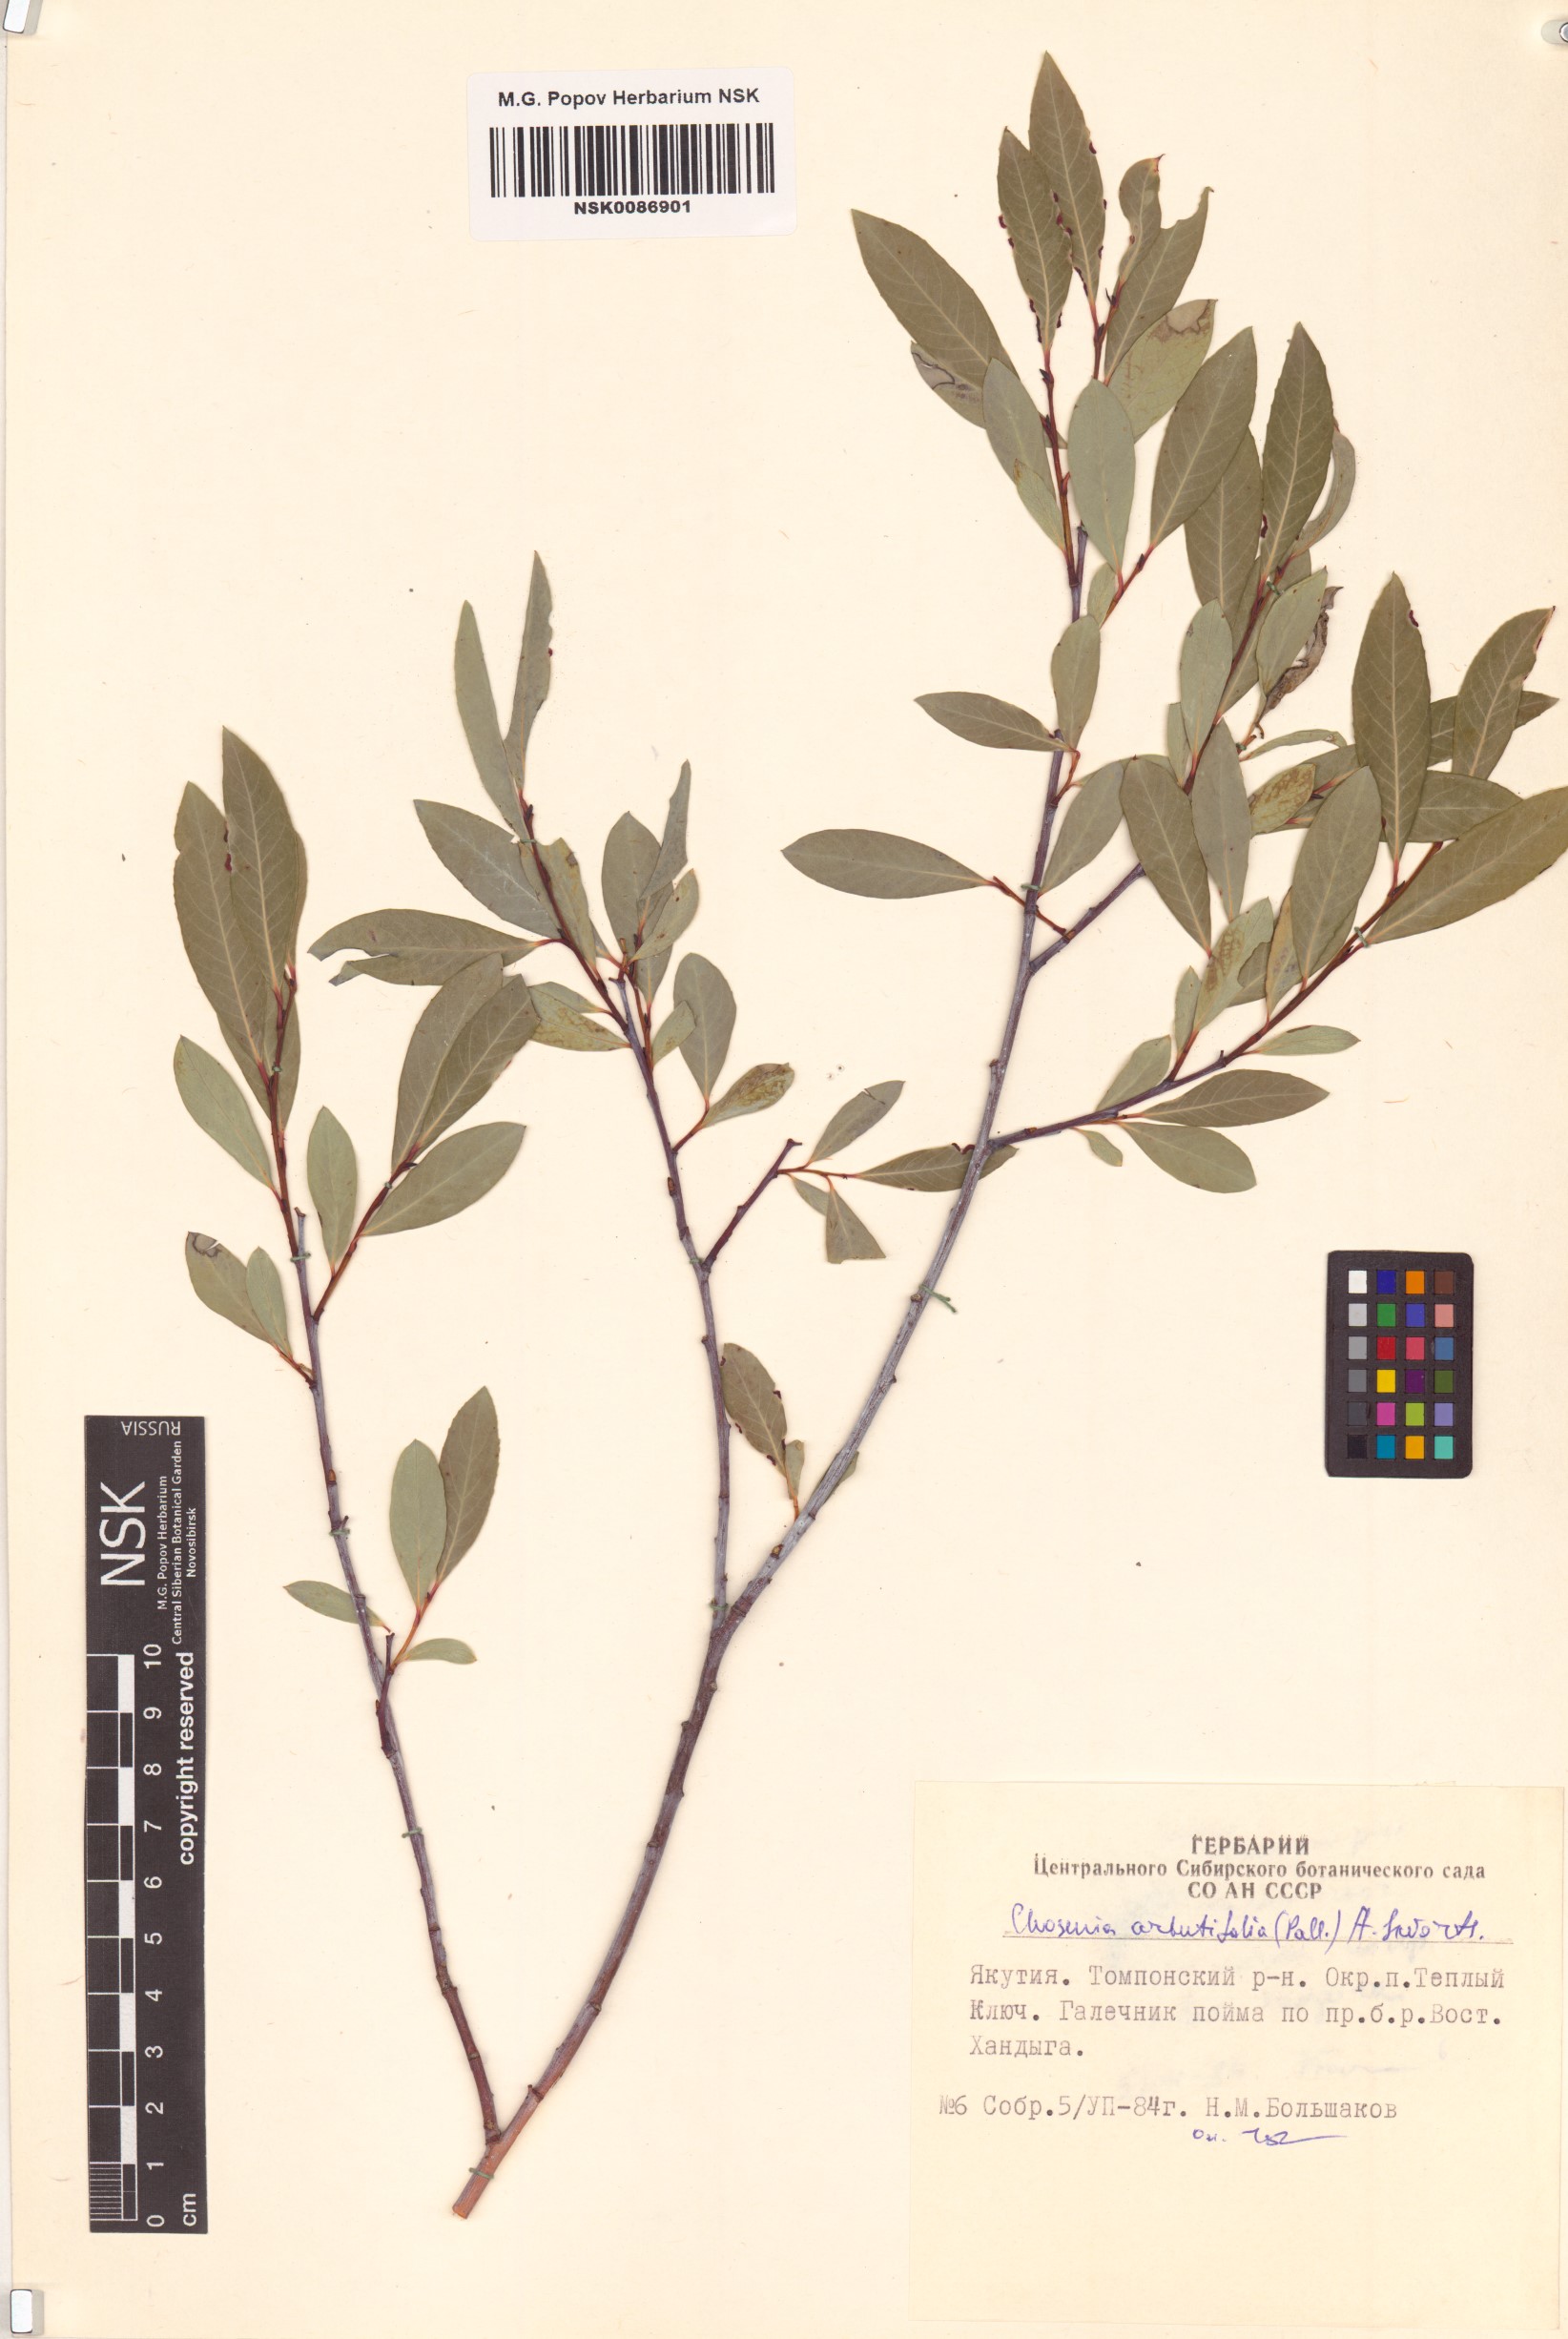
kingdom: Plantae
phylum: Tracheophyta
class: Magnoliopsida
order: Malpighiales
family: Salicaceae
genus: Chosenia
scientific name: Chosenia arbutifolia
